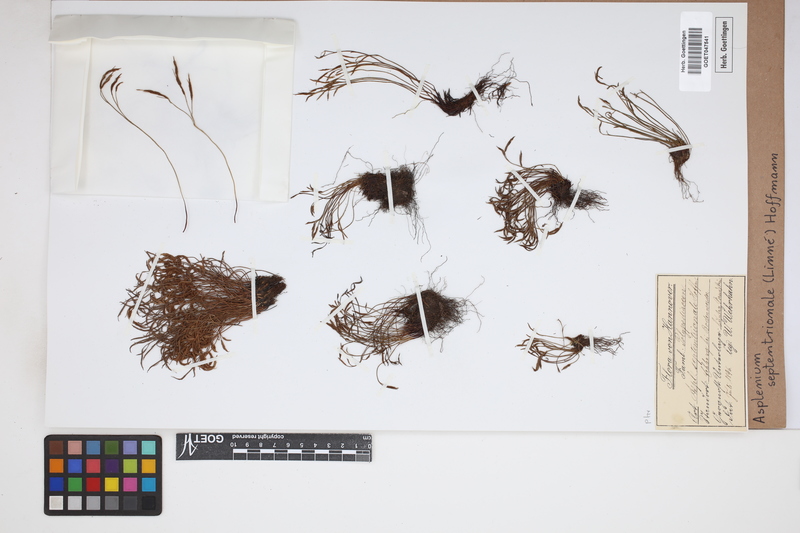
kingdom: Plantae
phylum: Tracheophyta
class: Polypodiopsida
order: Polypodiales
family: Aspleniaceae
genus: Asplenium
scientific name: Asplenium septentrionale
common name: Forked spleenwort
